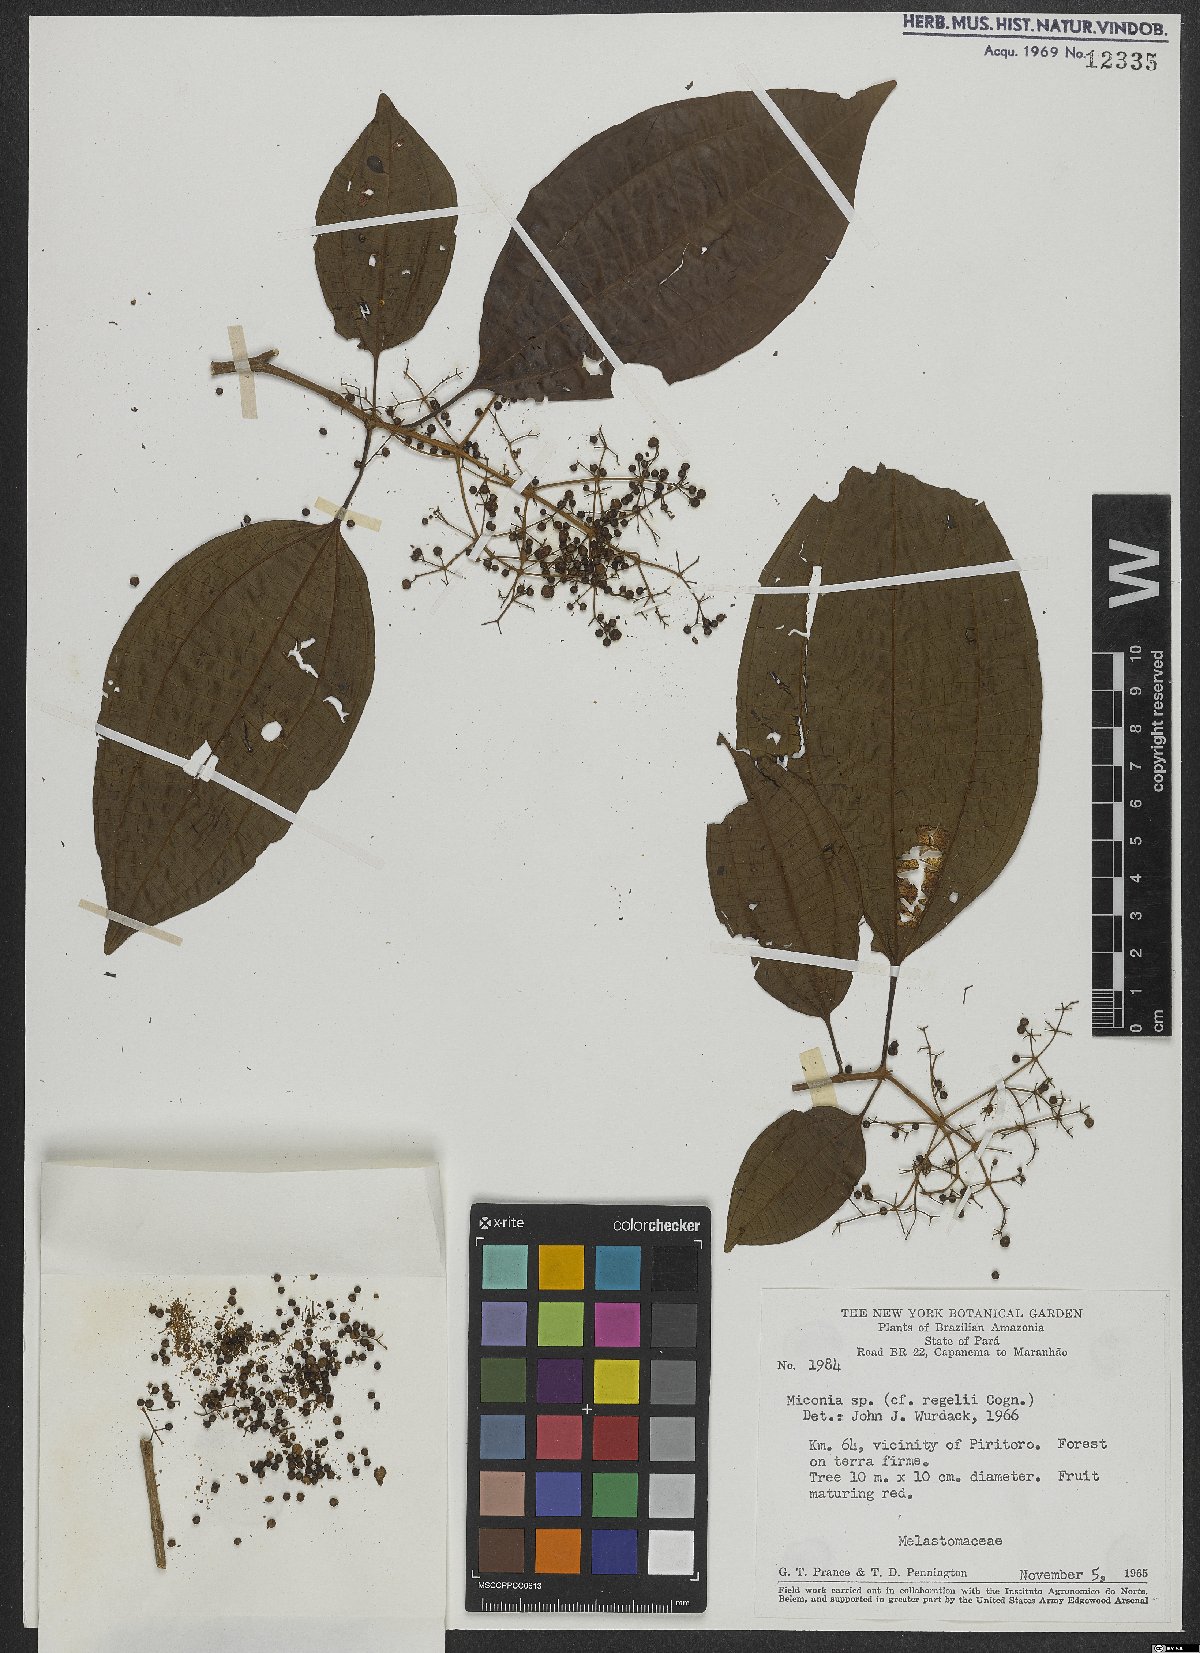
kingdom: Plantae
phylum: Tracheophyta
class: Magnoliopsida
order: Myrtales
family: Melastomataceae
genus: Miconia
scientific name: Miconia regelii
